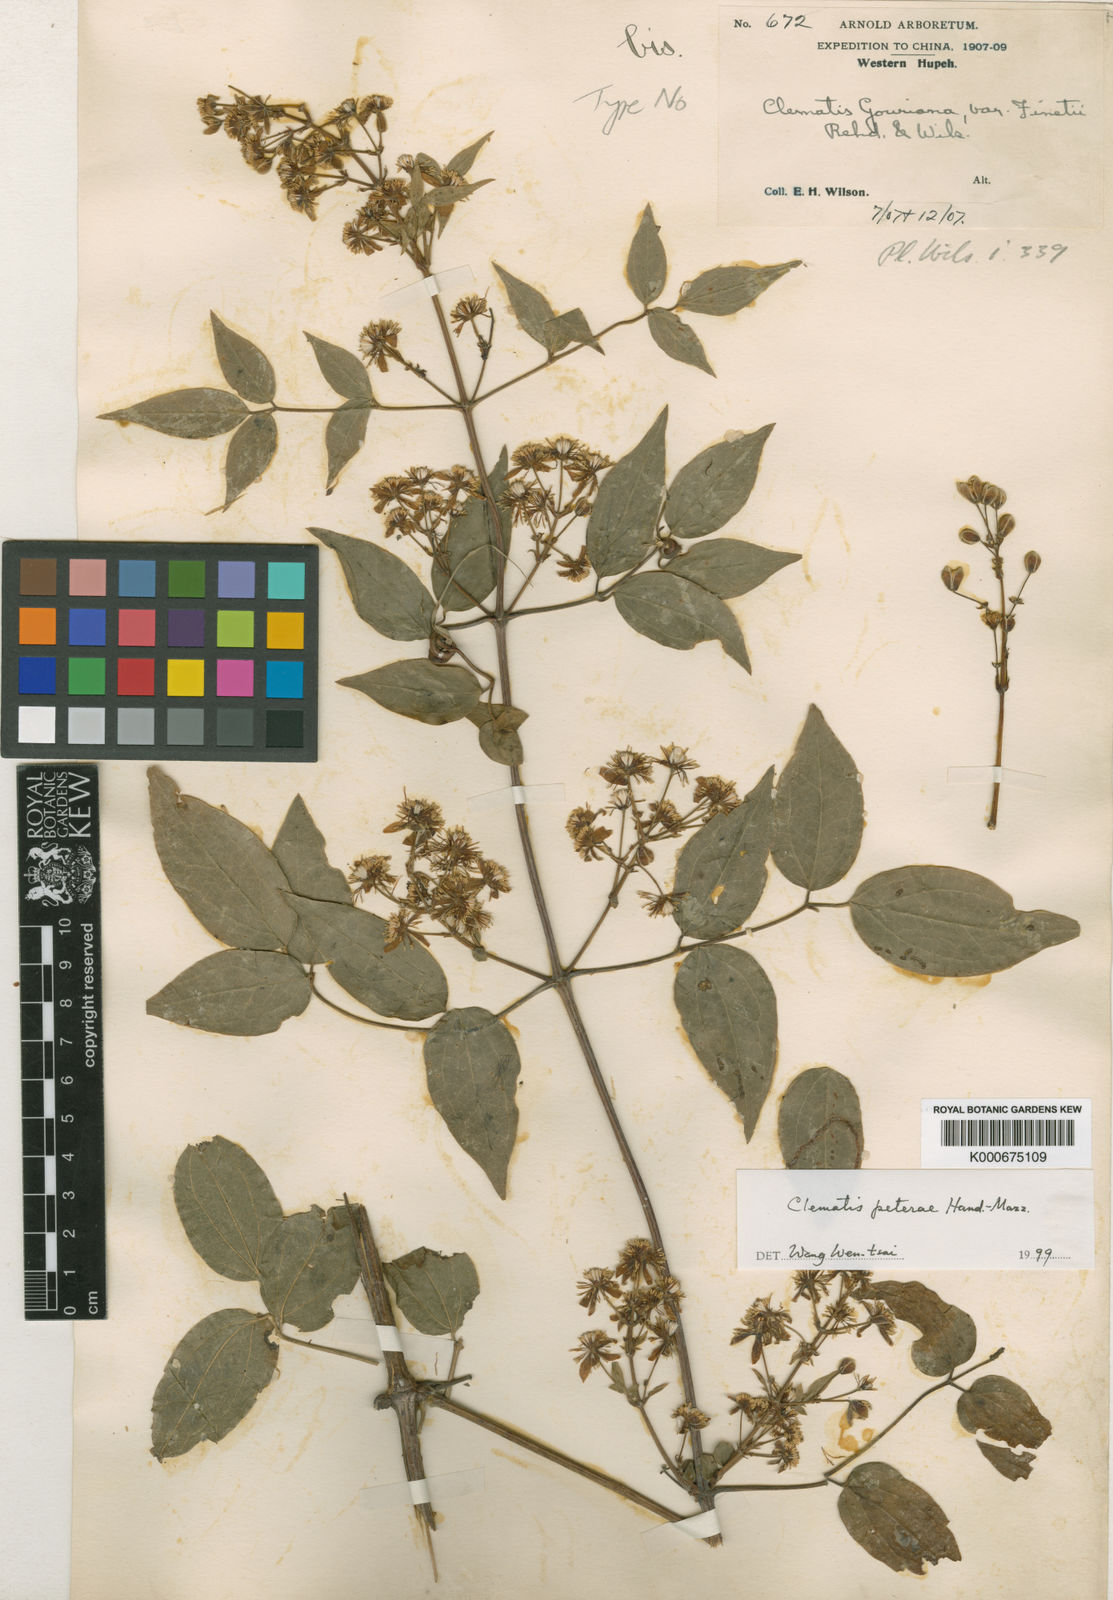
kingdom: Plantae
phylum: Tracheophyta
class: Magnoliopsida
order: Ranunculales
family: Ranunculaceae
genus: Clematis
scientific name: Clematis peterae
